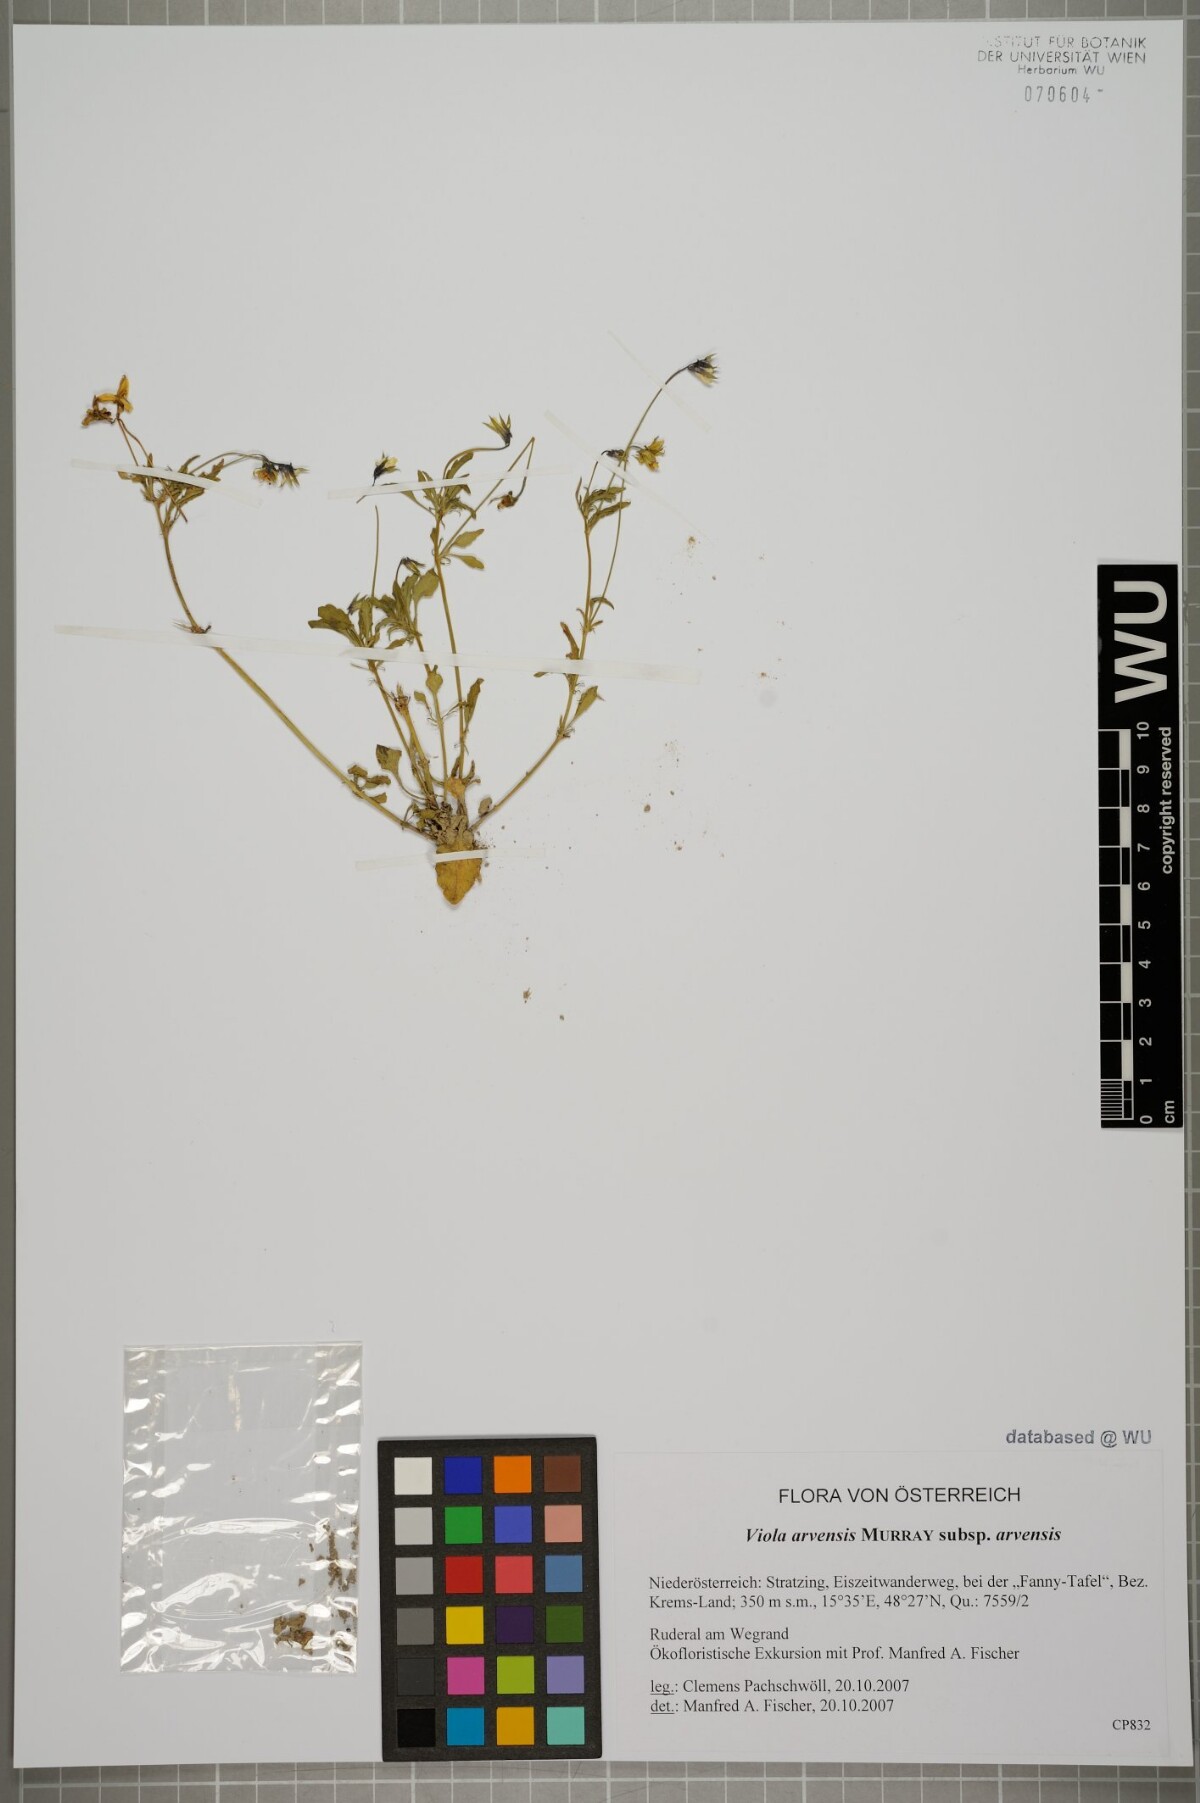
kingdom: Plantae
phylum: Tracheophyta
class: Magnoliopsida
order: Malpighiales
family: Violaceae
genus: Viola
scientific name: Viola arvensis
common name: Field pansy
